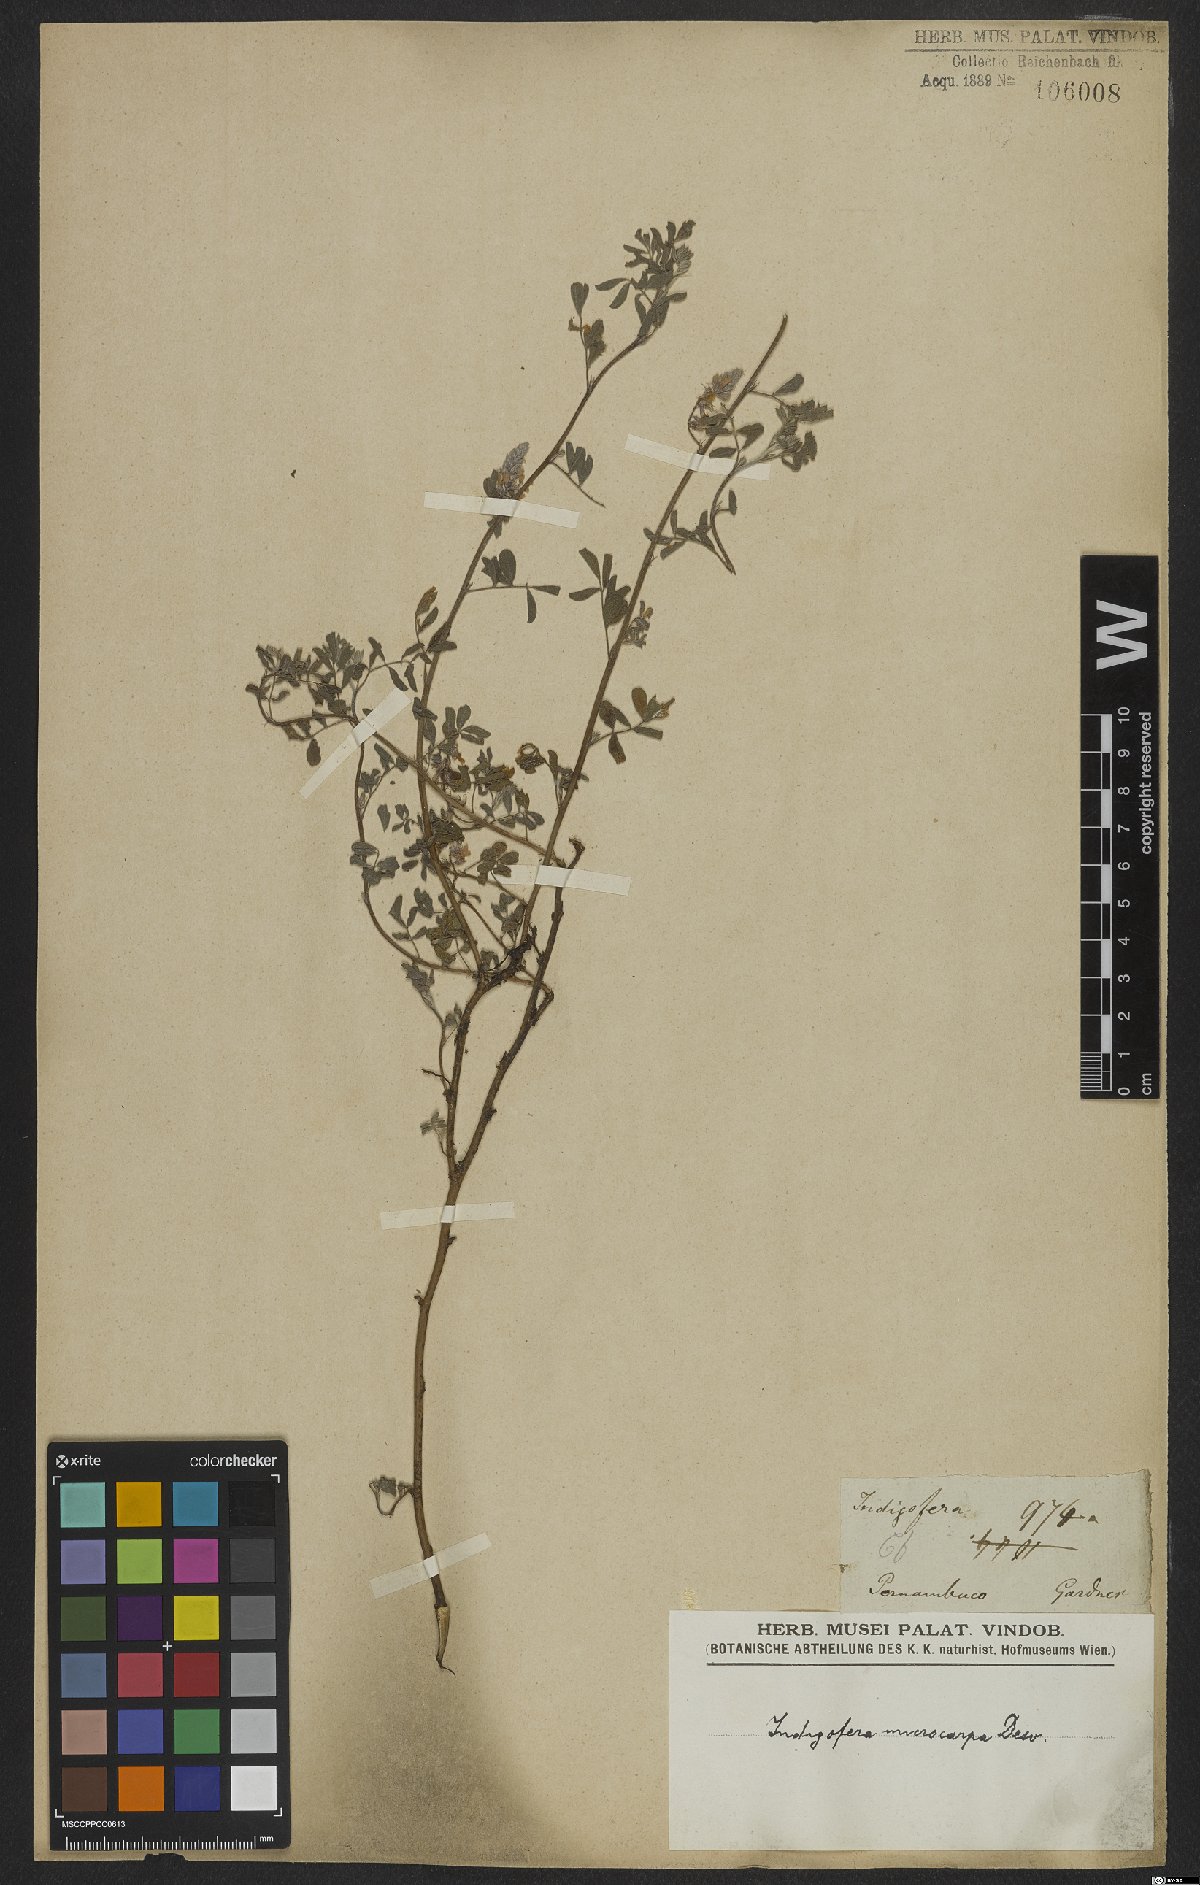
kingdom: Plantae
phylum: Tracheophyta
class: Magnoliopsida
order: Fabales
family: Fabaceae
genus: Indigofera
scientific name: Indigofera microcarpa
